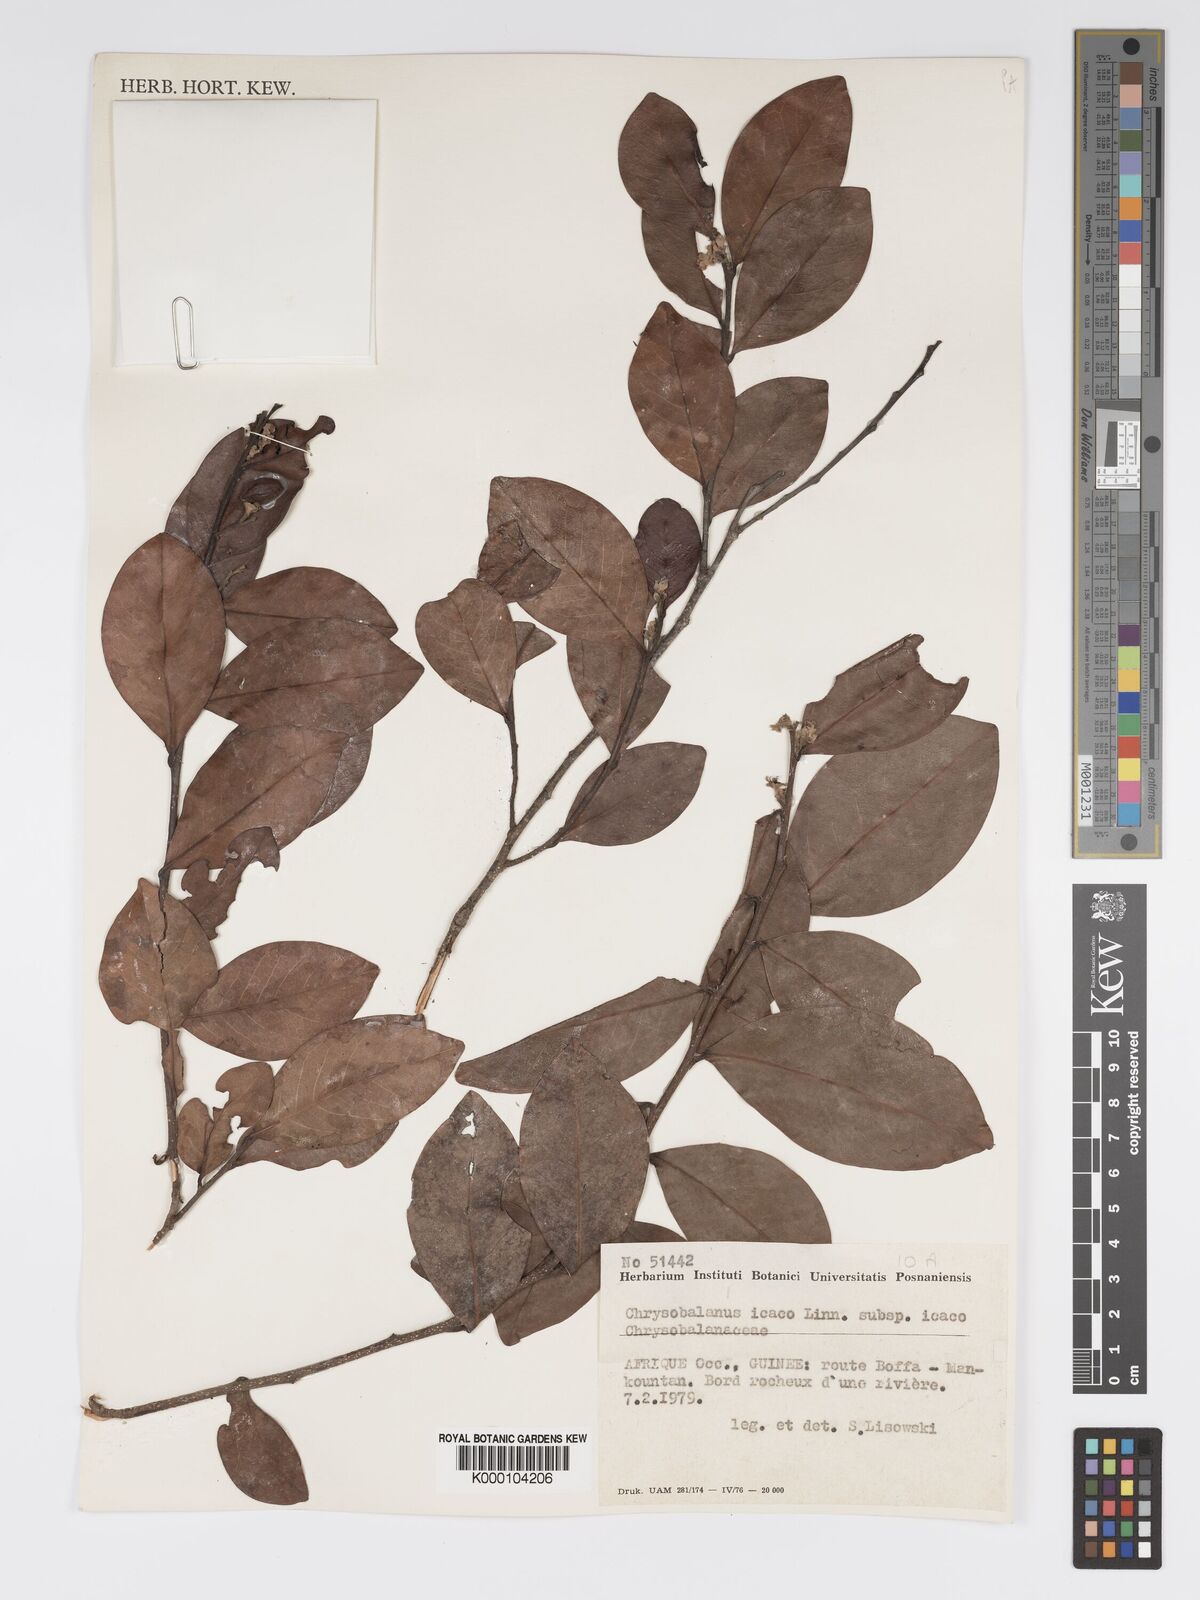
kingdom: Plantae
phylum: Tracheophyta
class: Magnoliopsida
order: Malpighiales
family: Chrysobalanaceae
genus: Chrysobalanus
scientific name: Chrysobalanus icaco
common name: Coco plum
